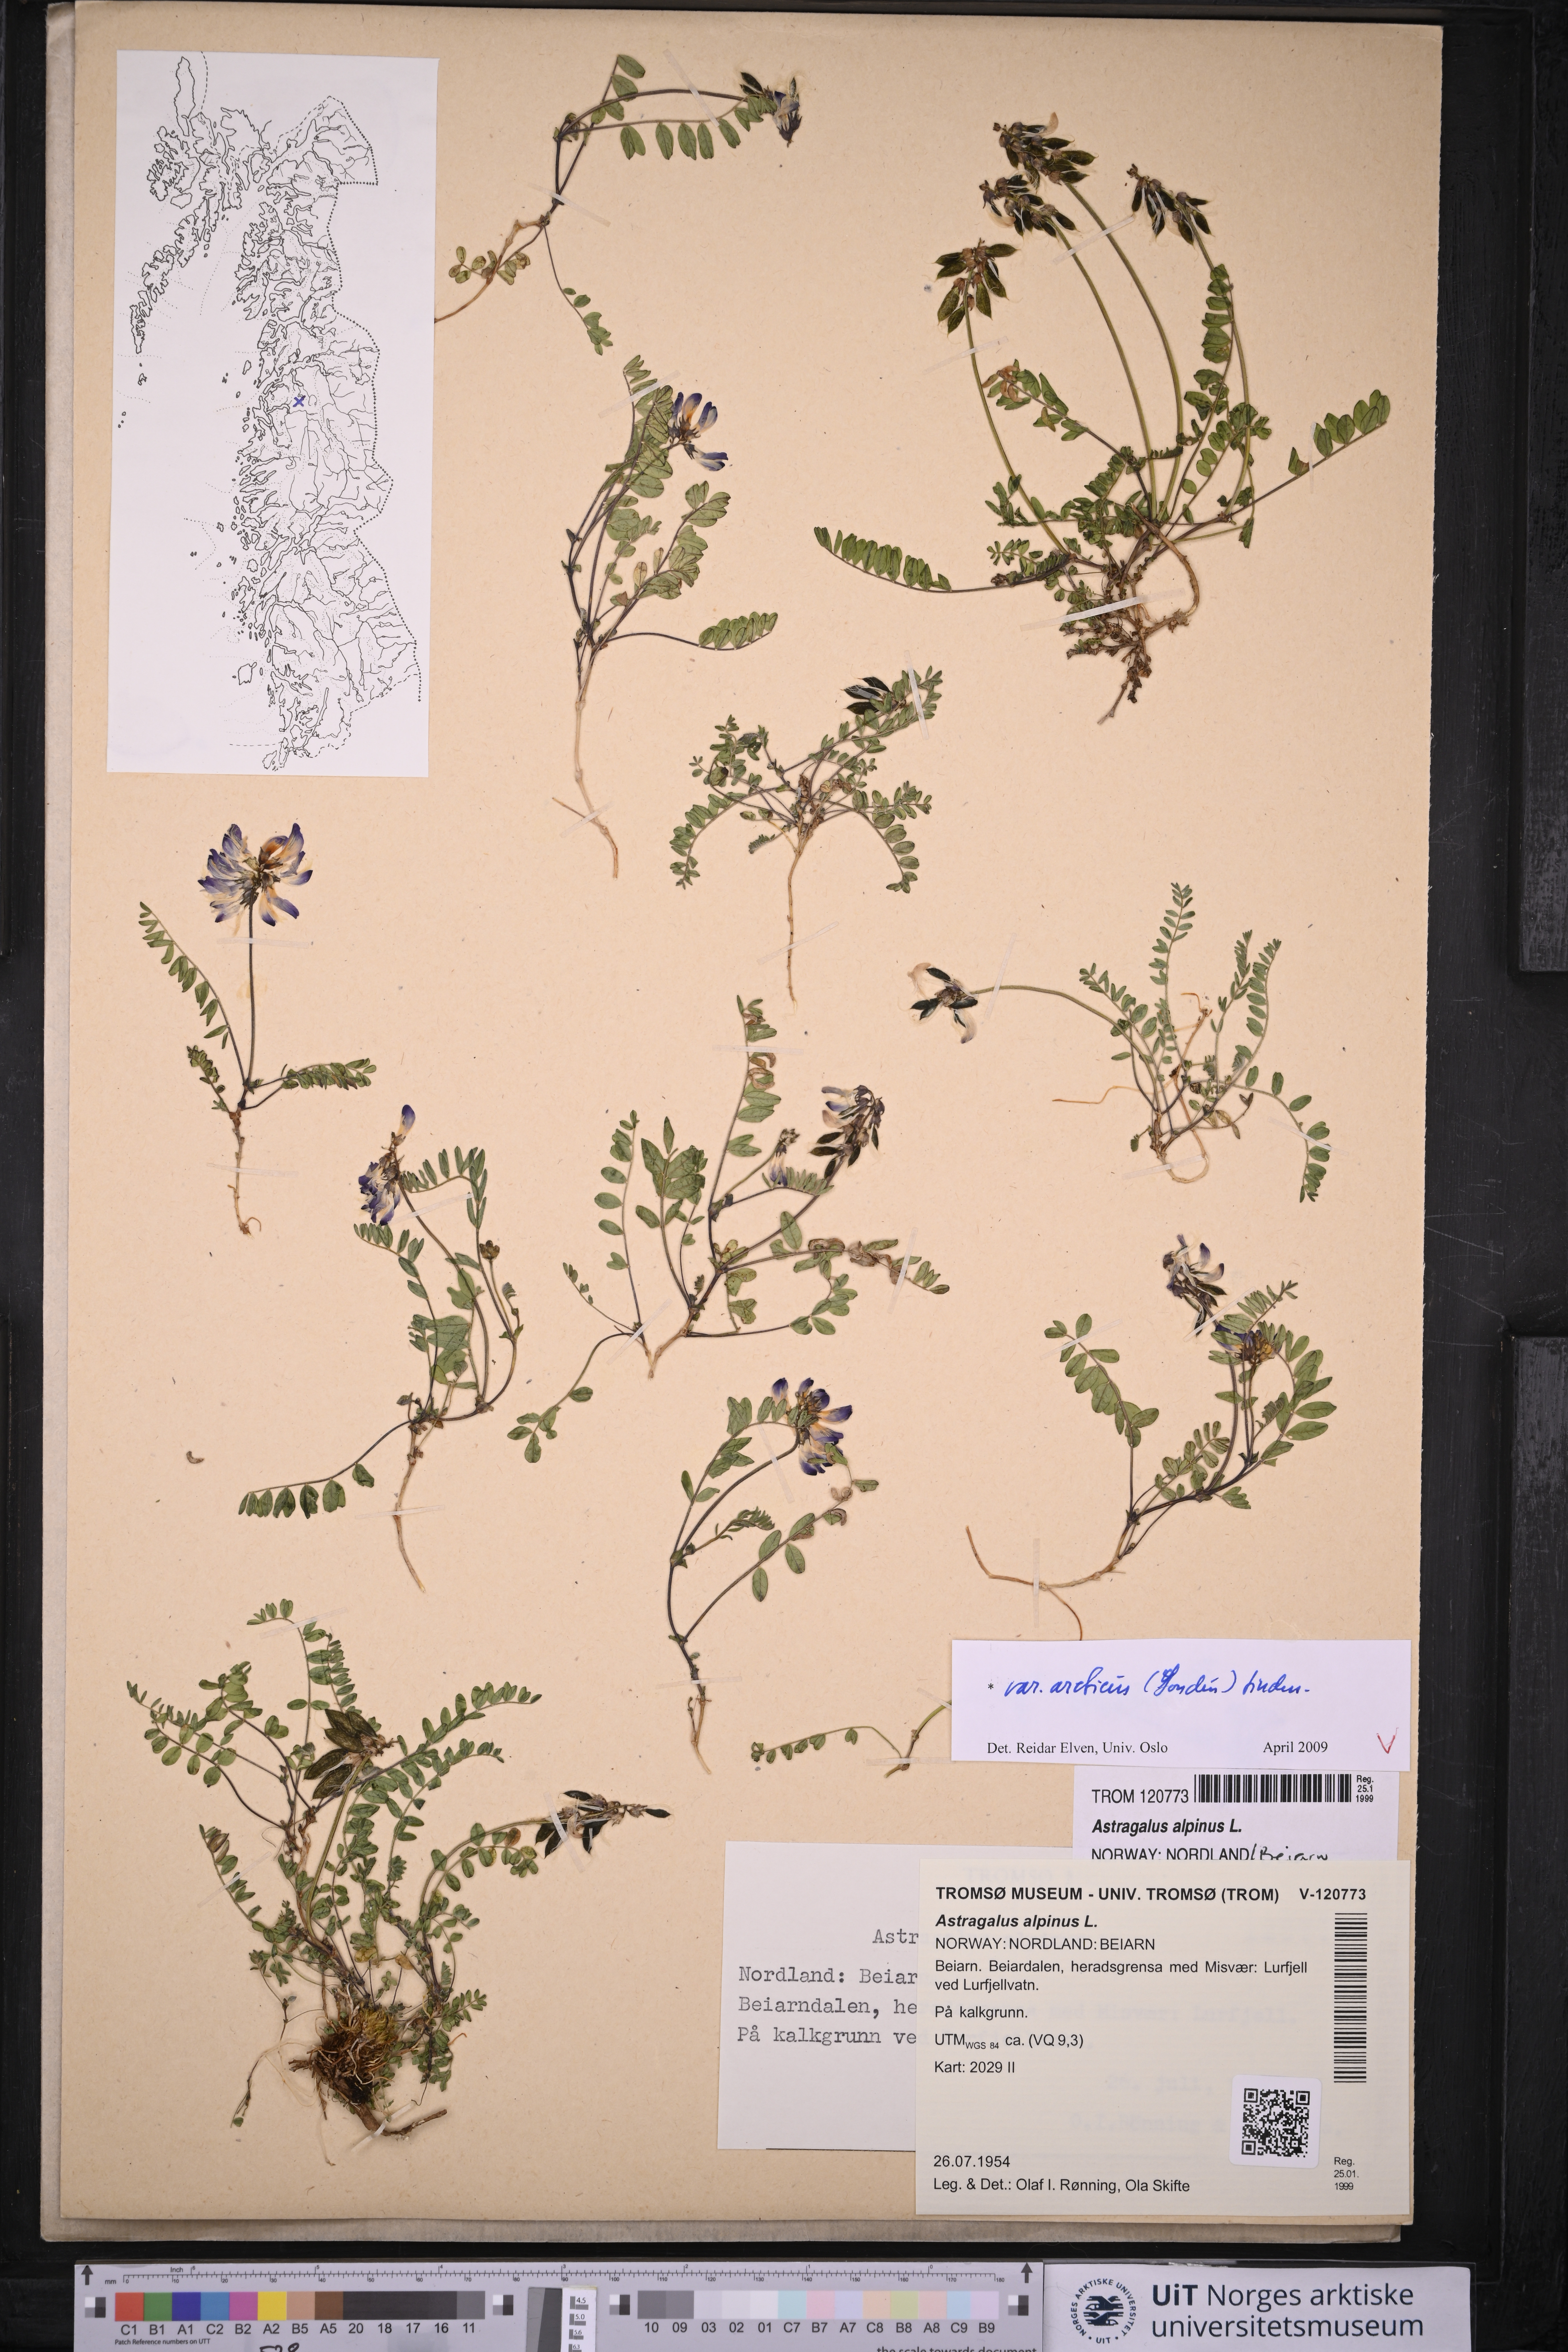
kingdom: Plantae
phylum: Tracheophyta
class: Magnoliopsida
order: Fabales
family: Fabaceae
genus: Astragalus
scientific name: Astragalus norvegicus
